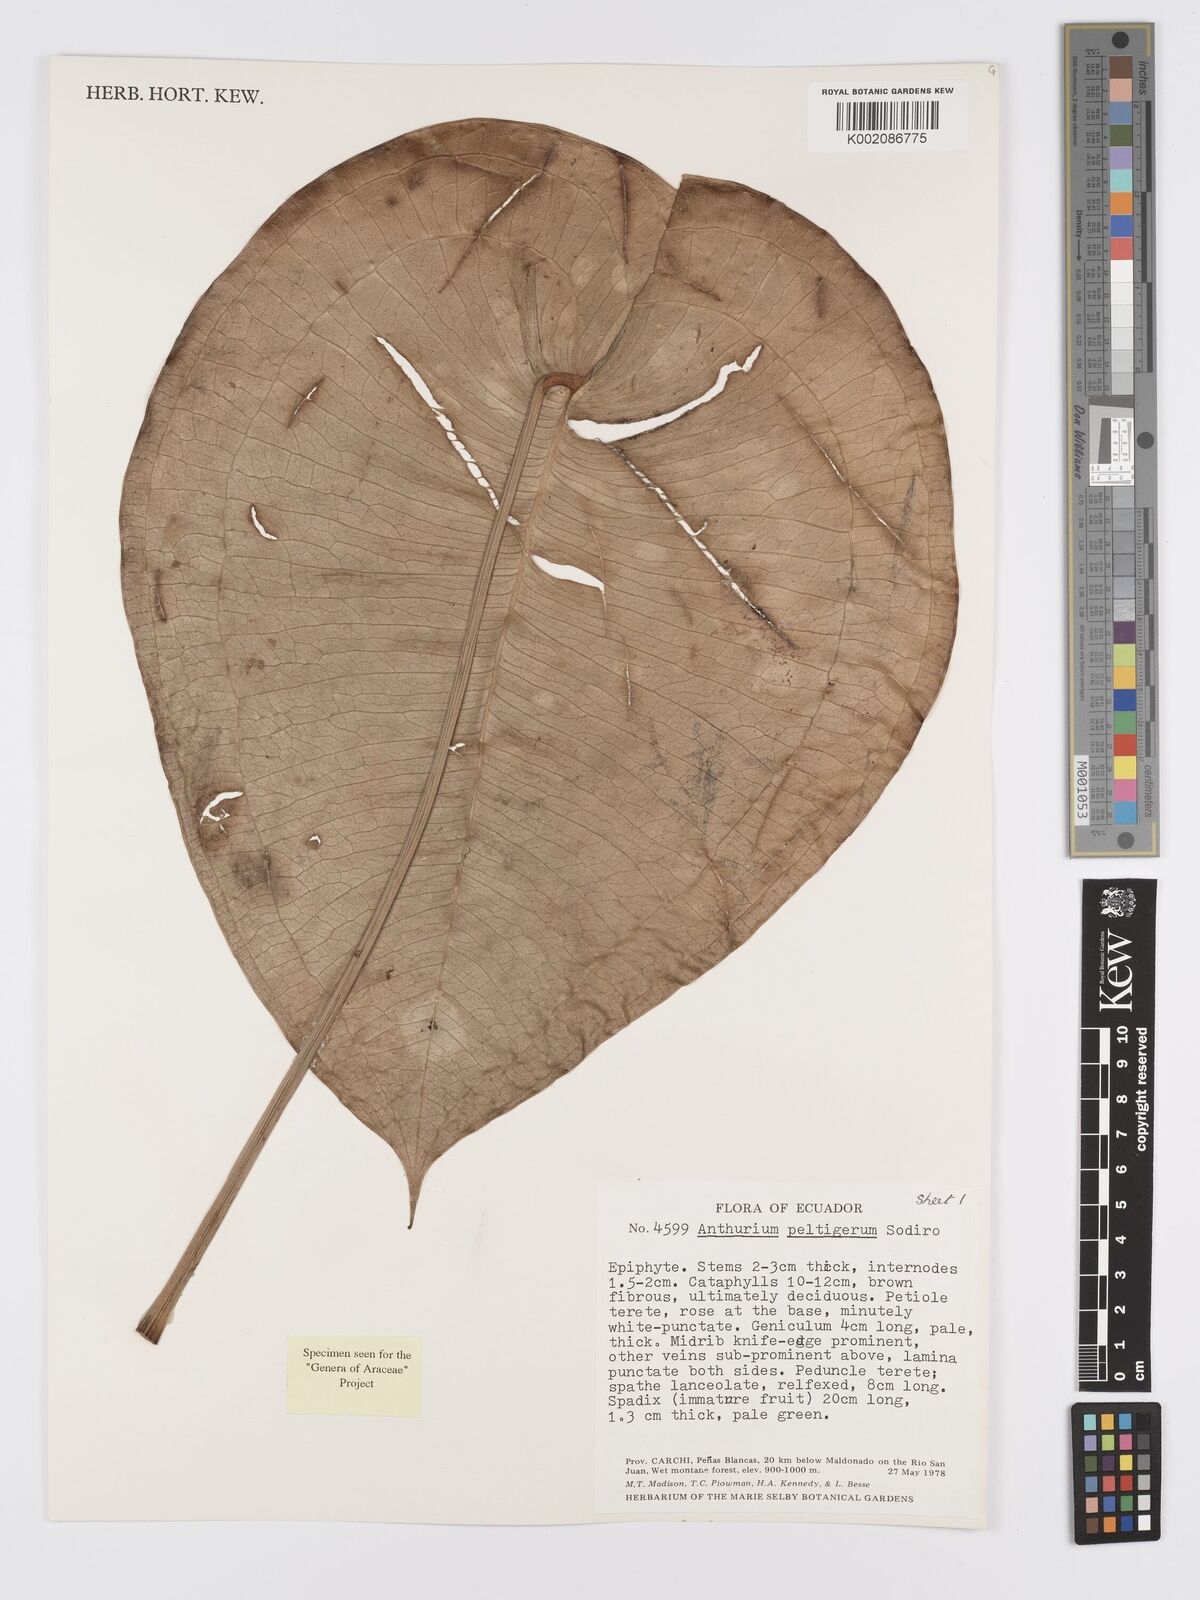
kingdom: Plantae
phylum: Tracheophyta
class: Liliopsida
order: Alismatales
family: Araceae
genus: Anthurium
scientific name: Anthurium peltigerum
